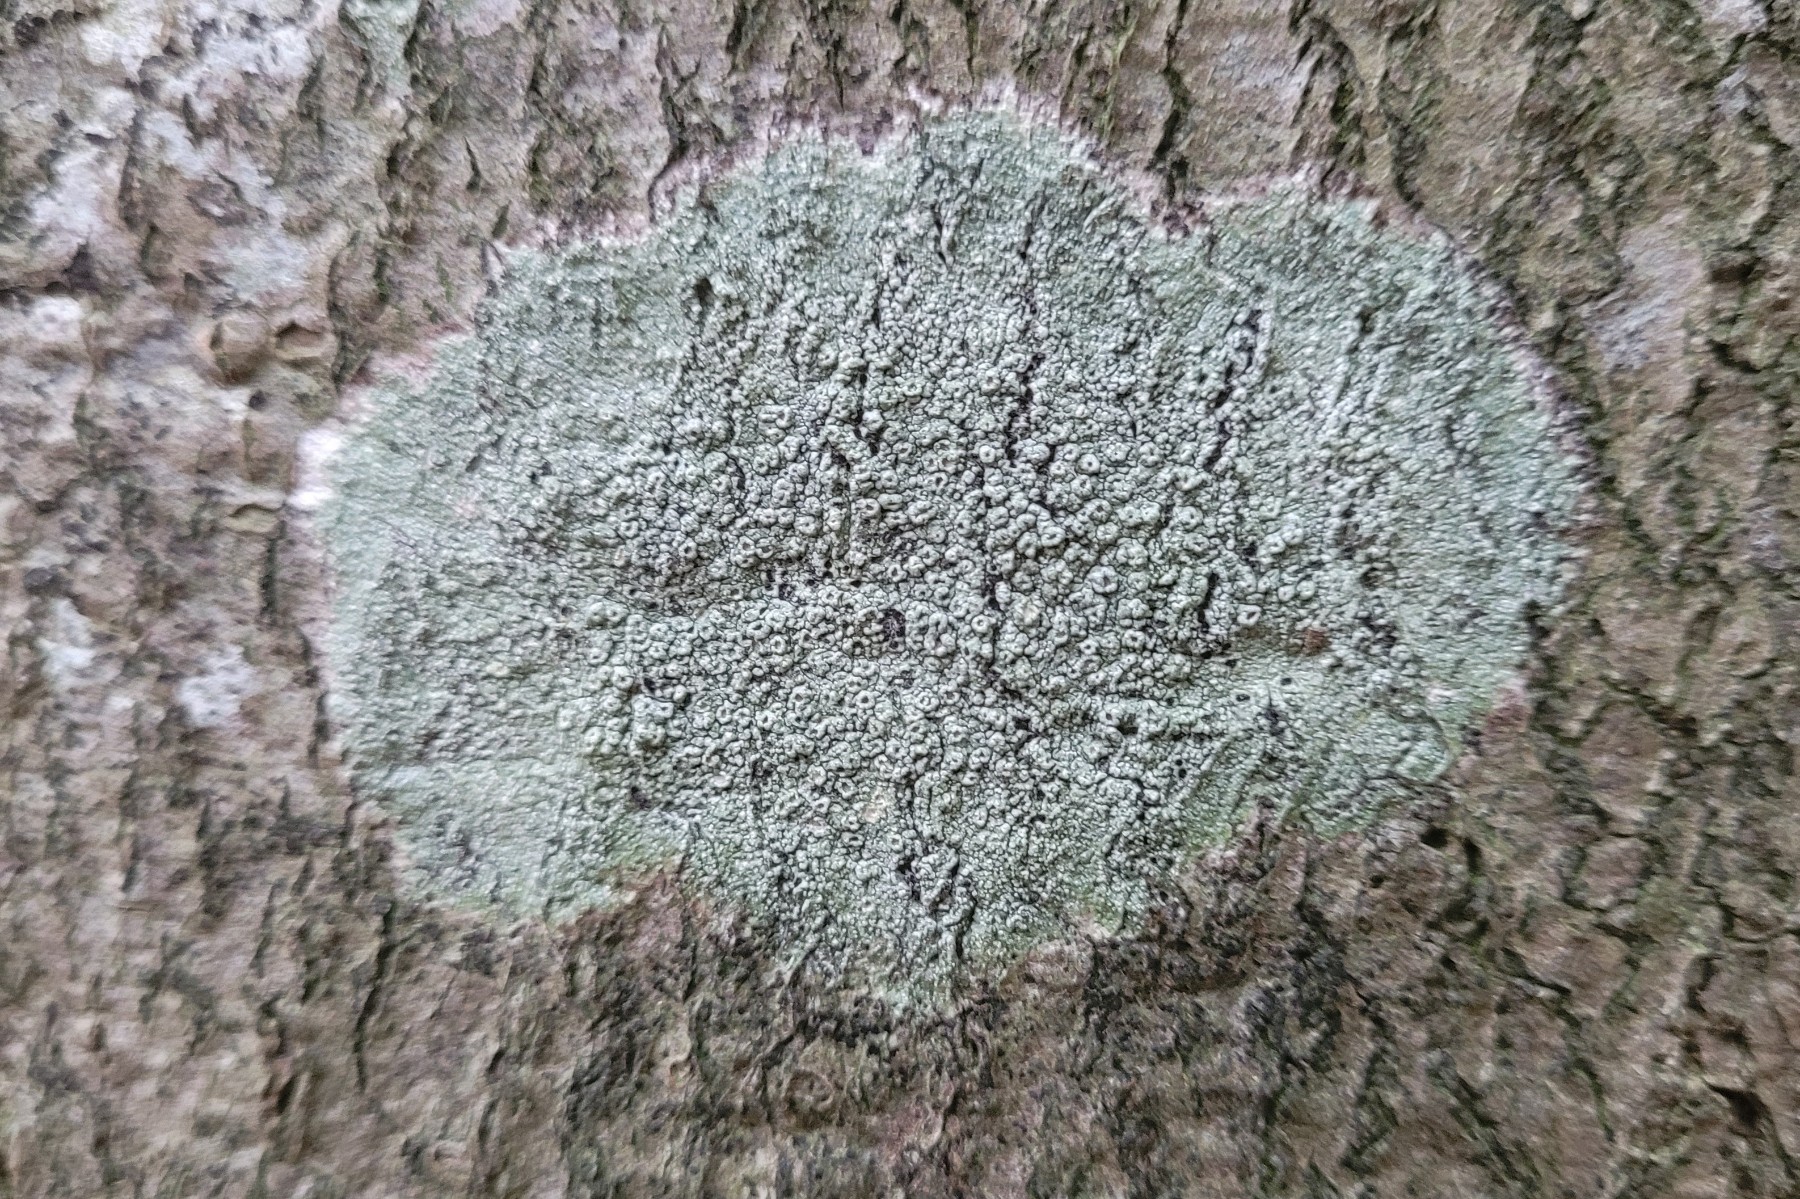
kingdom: Fungi
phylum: Ascomycota
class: Lecanoromycetes
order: Pertusariales
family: Pertusariaceae
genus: Pertusaria
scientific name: Pertusaria hymenea
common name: åben prikvortelav
